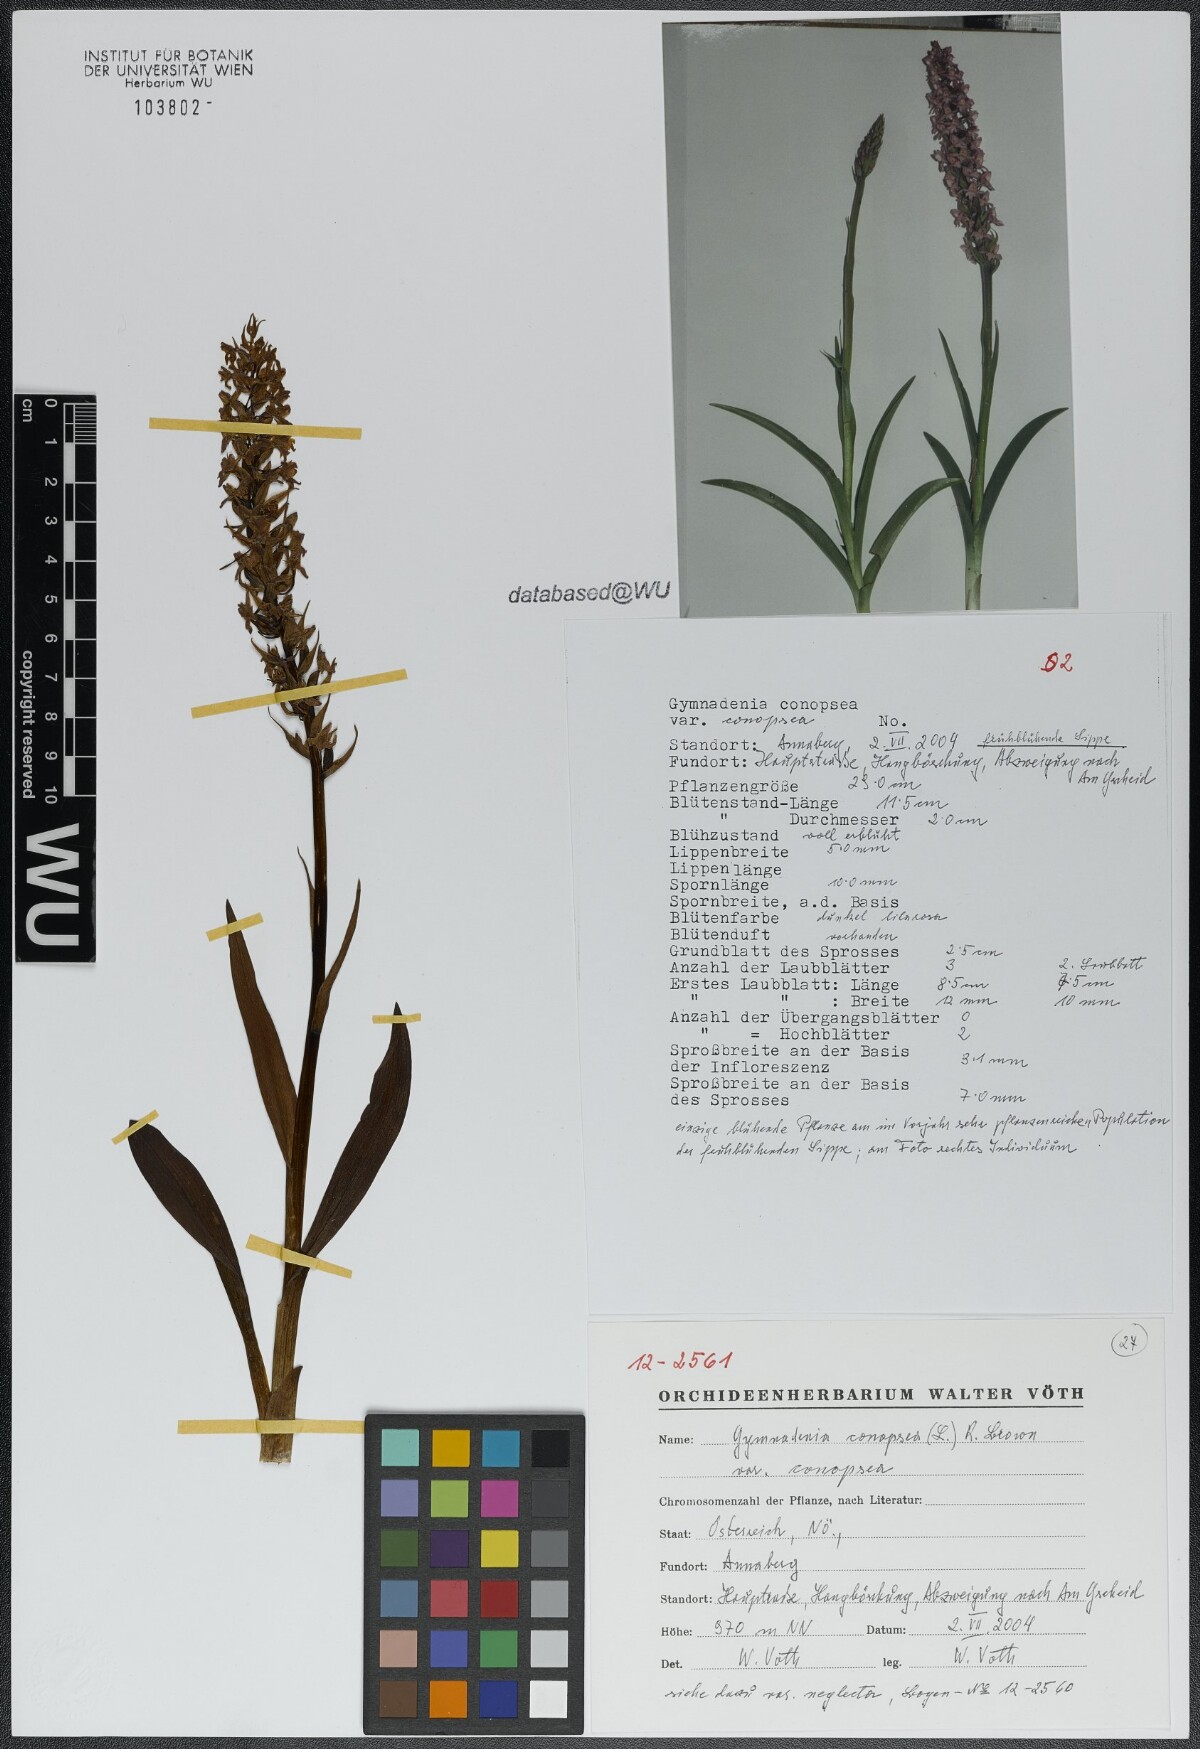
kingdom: Plantae
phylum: Tracheophyta
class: Liliopsida
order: Asparagales
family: Orchidaceae
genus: Gymnadenia
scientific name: Gymnadenia conopsea
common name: Fragrant orchid
